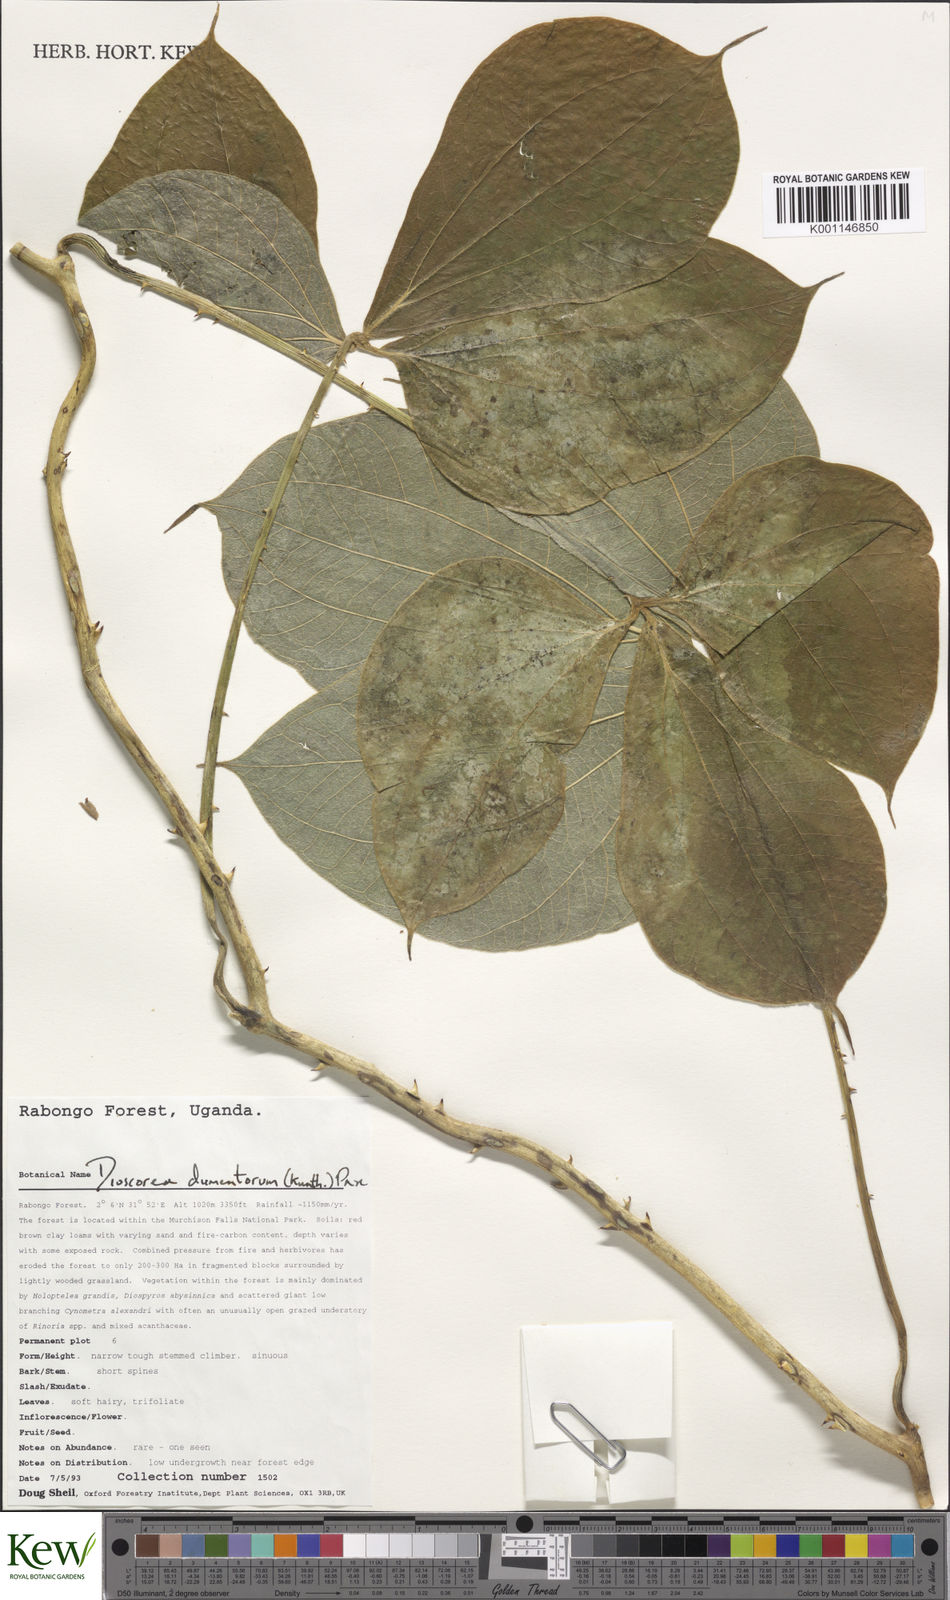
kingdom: Plantae
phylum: Tracheophyta
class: Liliopsida
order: Dioscoreales
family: Dioscoreaceae
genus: Dioscorea
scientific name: Dioscorea dumetorum
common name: African bitter yam
